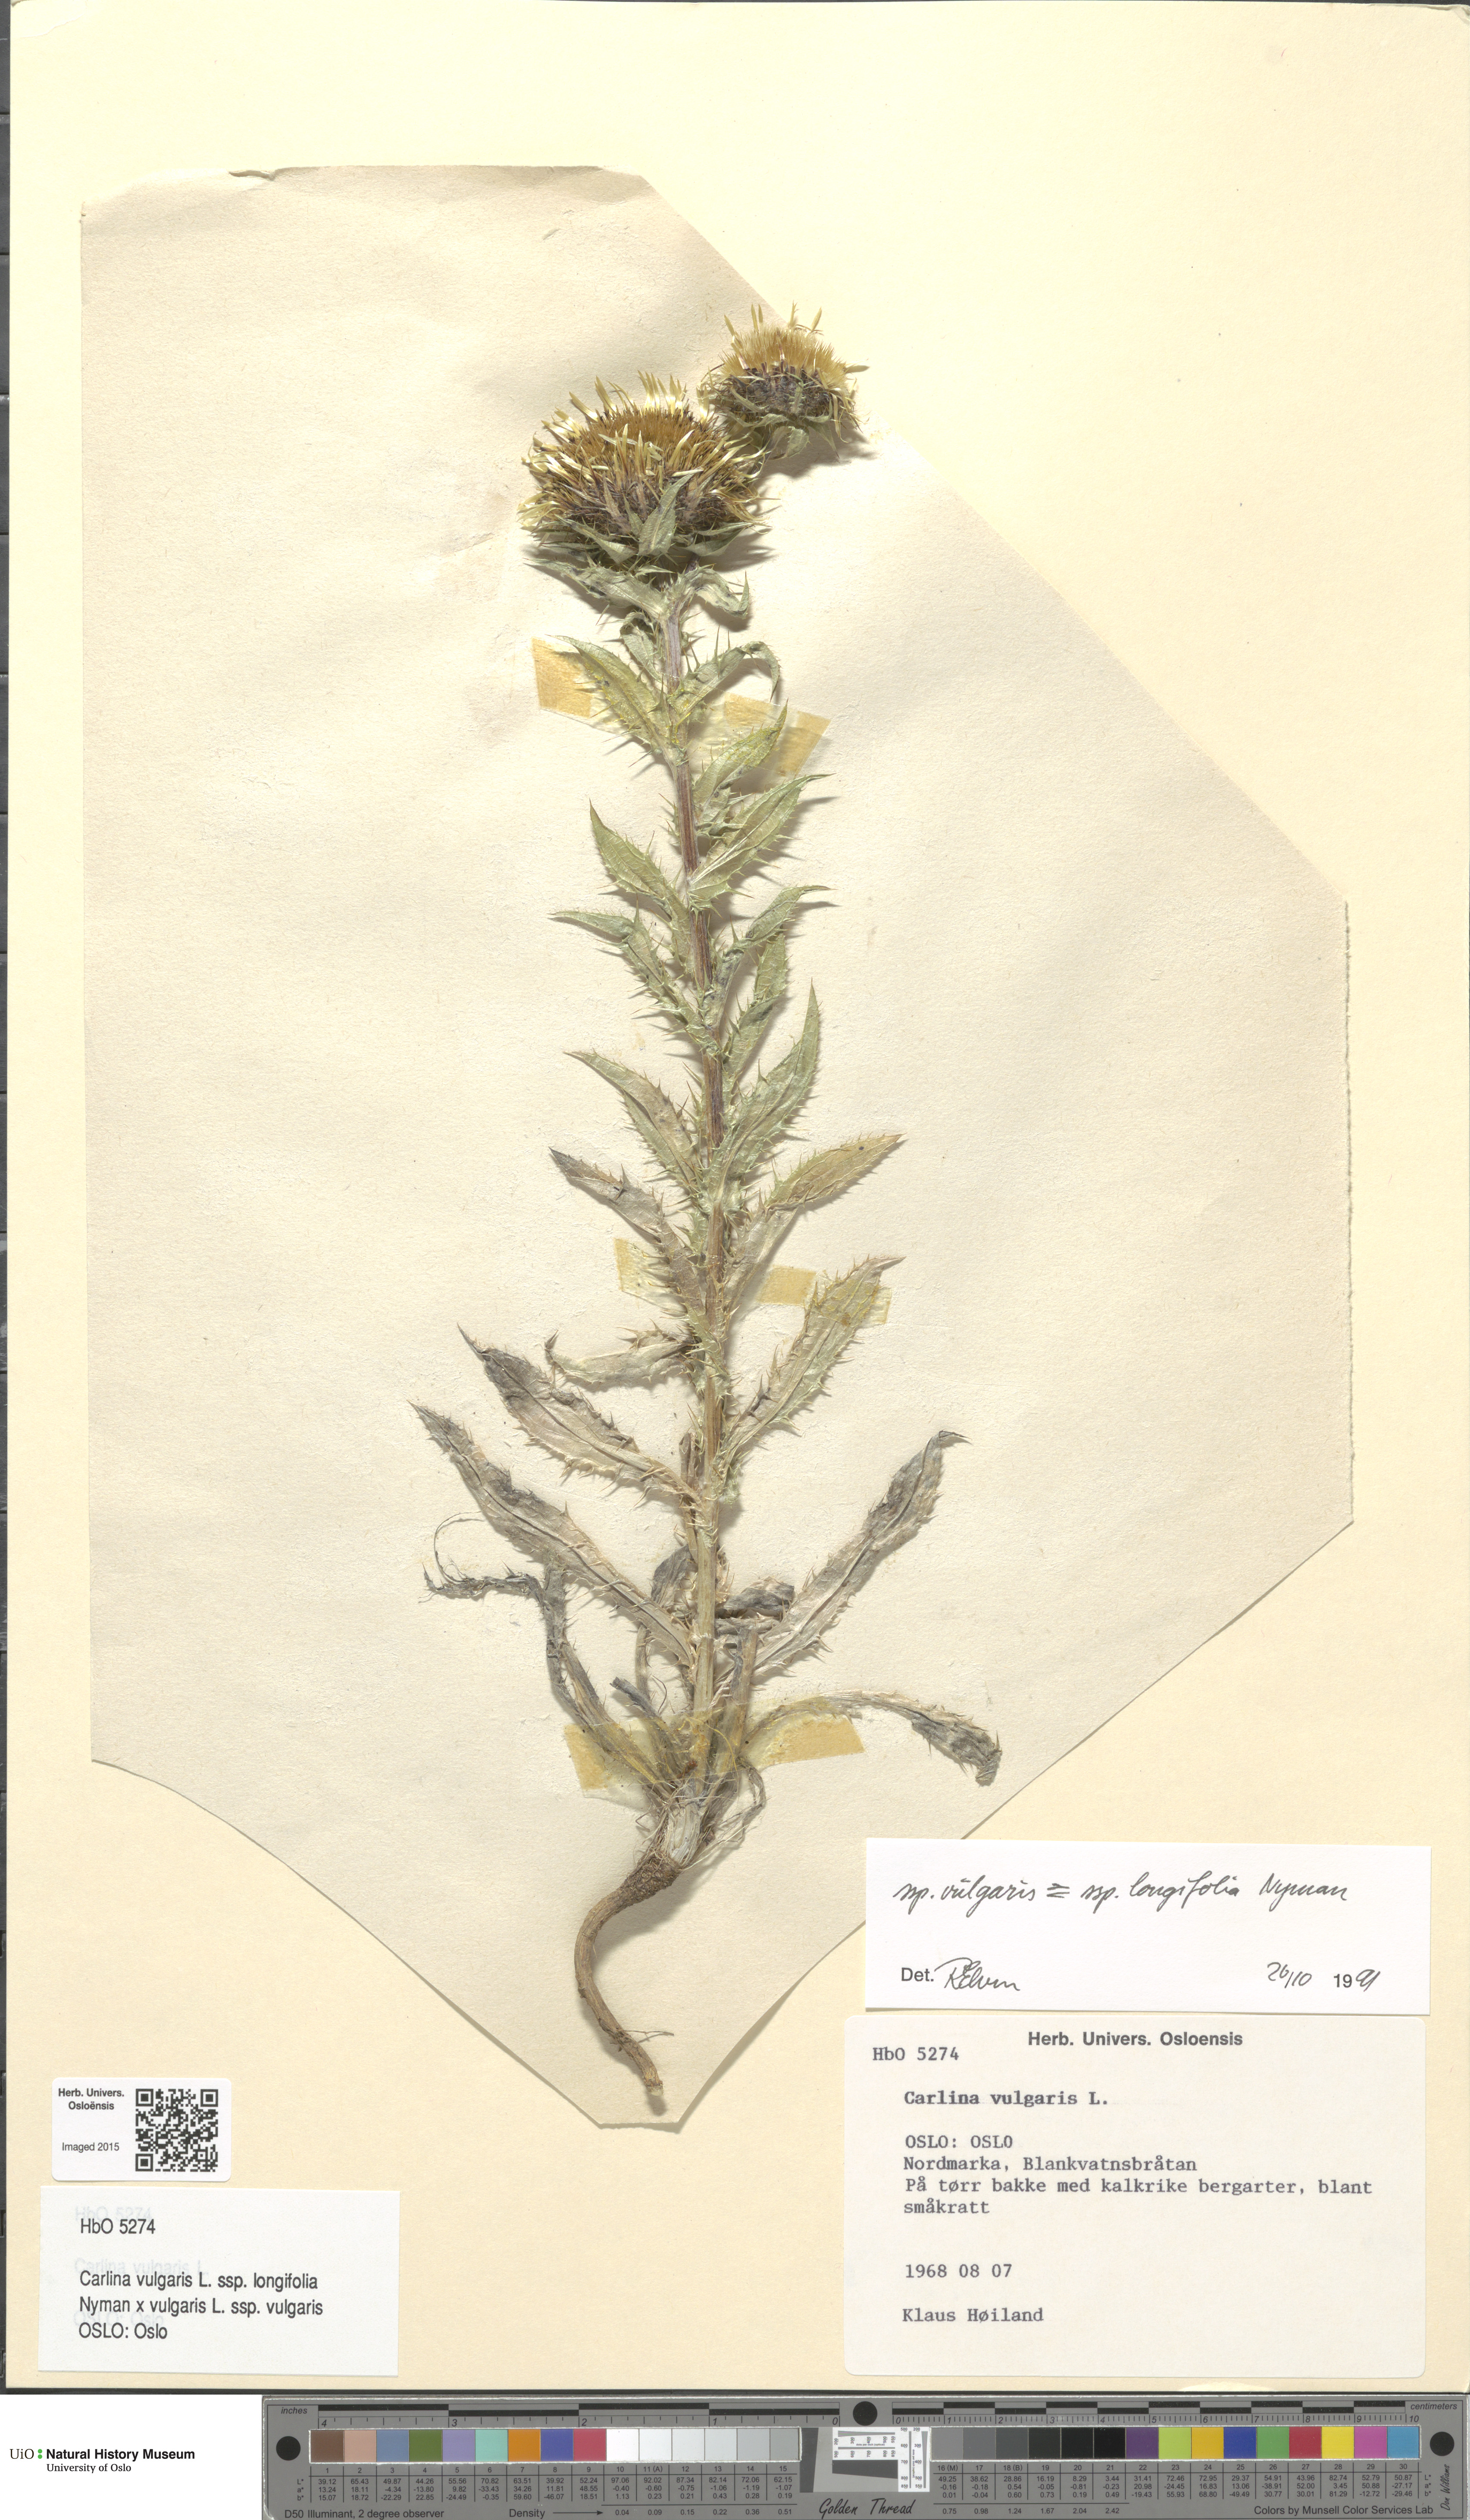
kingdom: Plantae
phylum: Tracheophyta
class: Magnoliopsida
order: Asterales
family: Asteraceae
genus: Carlina
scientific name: Carlina
